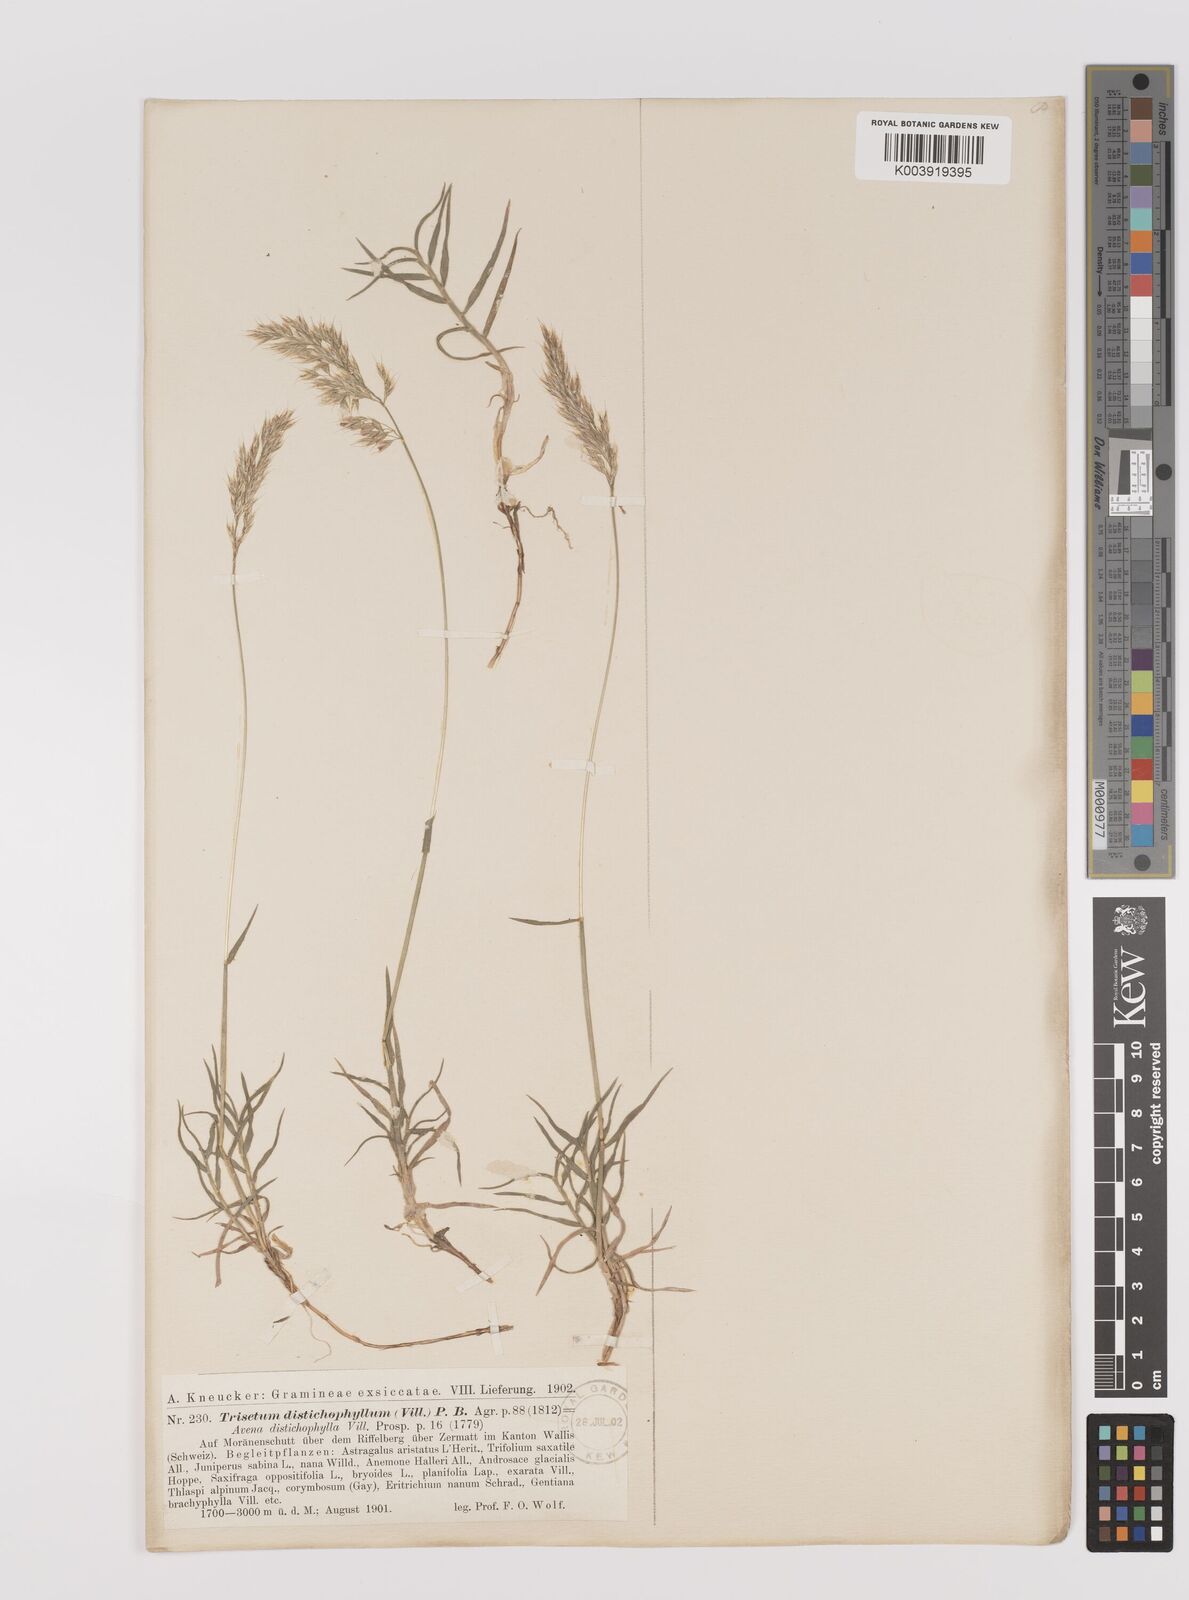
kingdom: Plantae
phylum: Tracheophyta
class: Liliopsida
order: Poales
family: Poaceae
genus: Acrospelion
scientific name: Acrospelion distichophyllum
